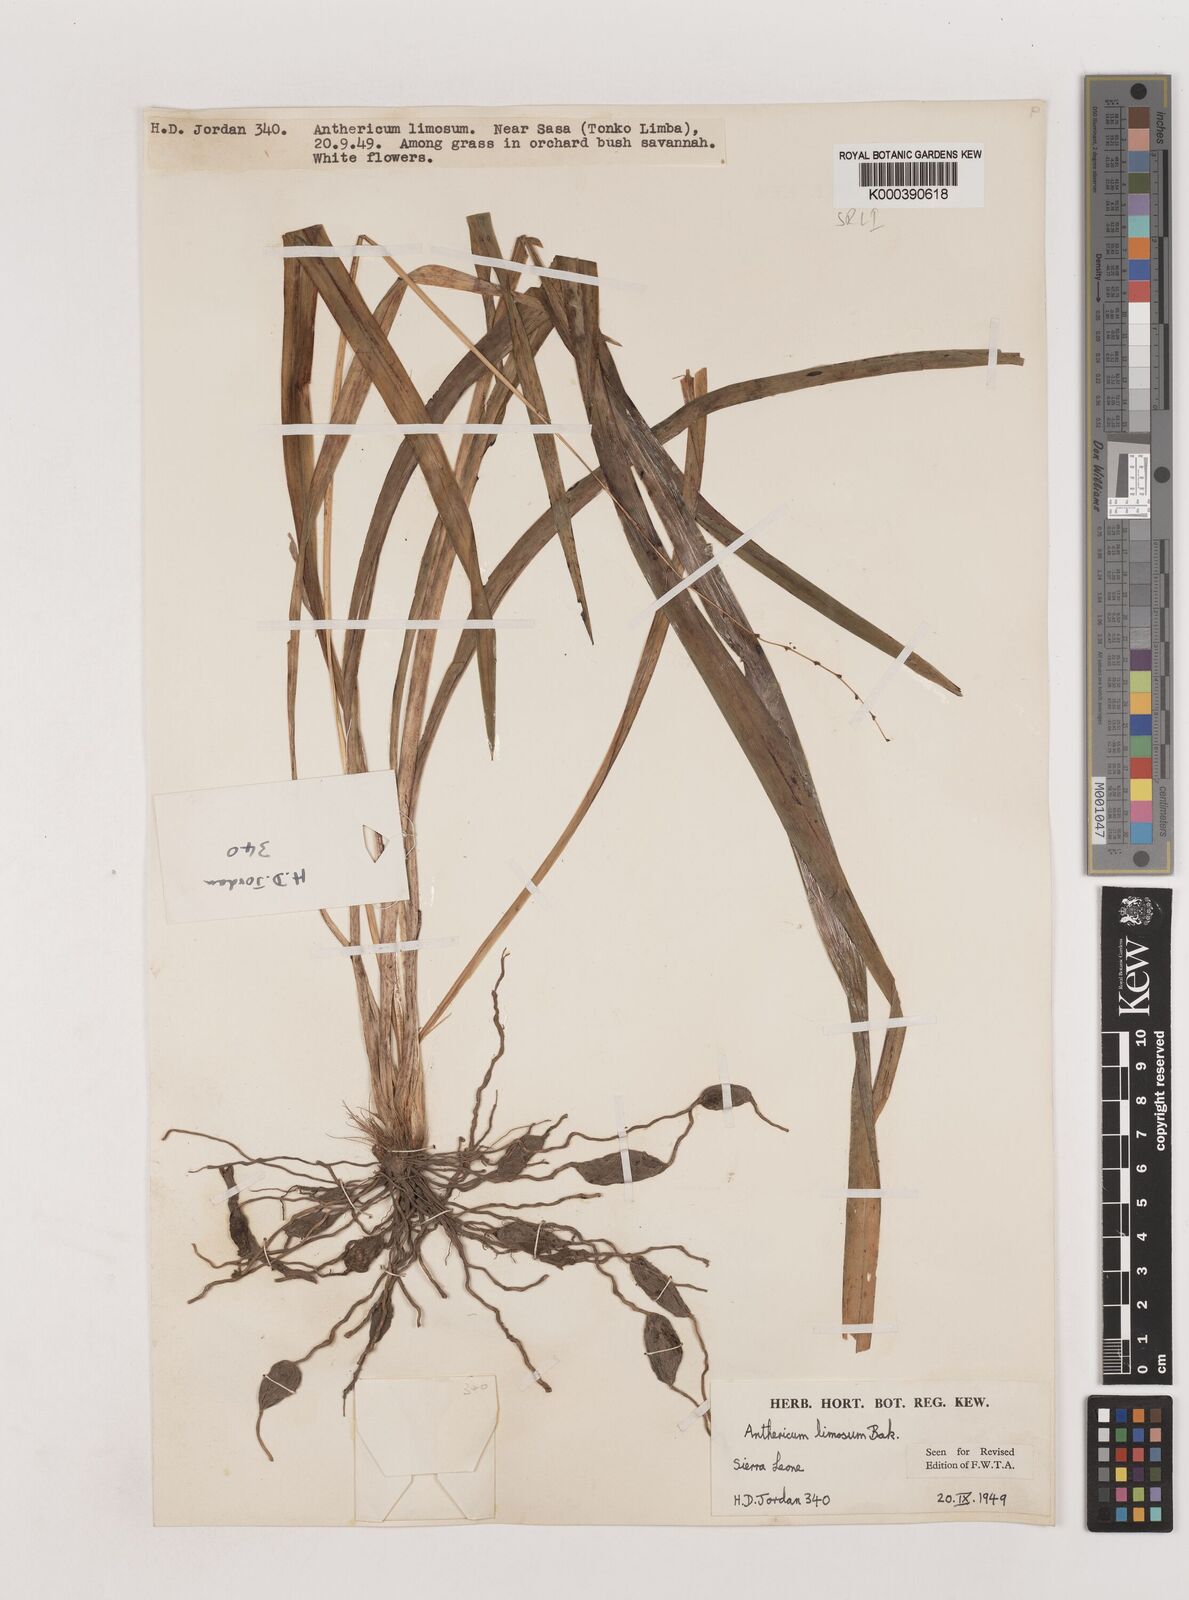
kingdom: Plantae
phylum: Tracheophyta
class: Liliopsida
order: Asparagales
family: Asparagaceae
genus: Chlorophytum
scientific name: Chlorophytum limosum
